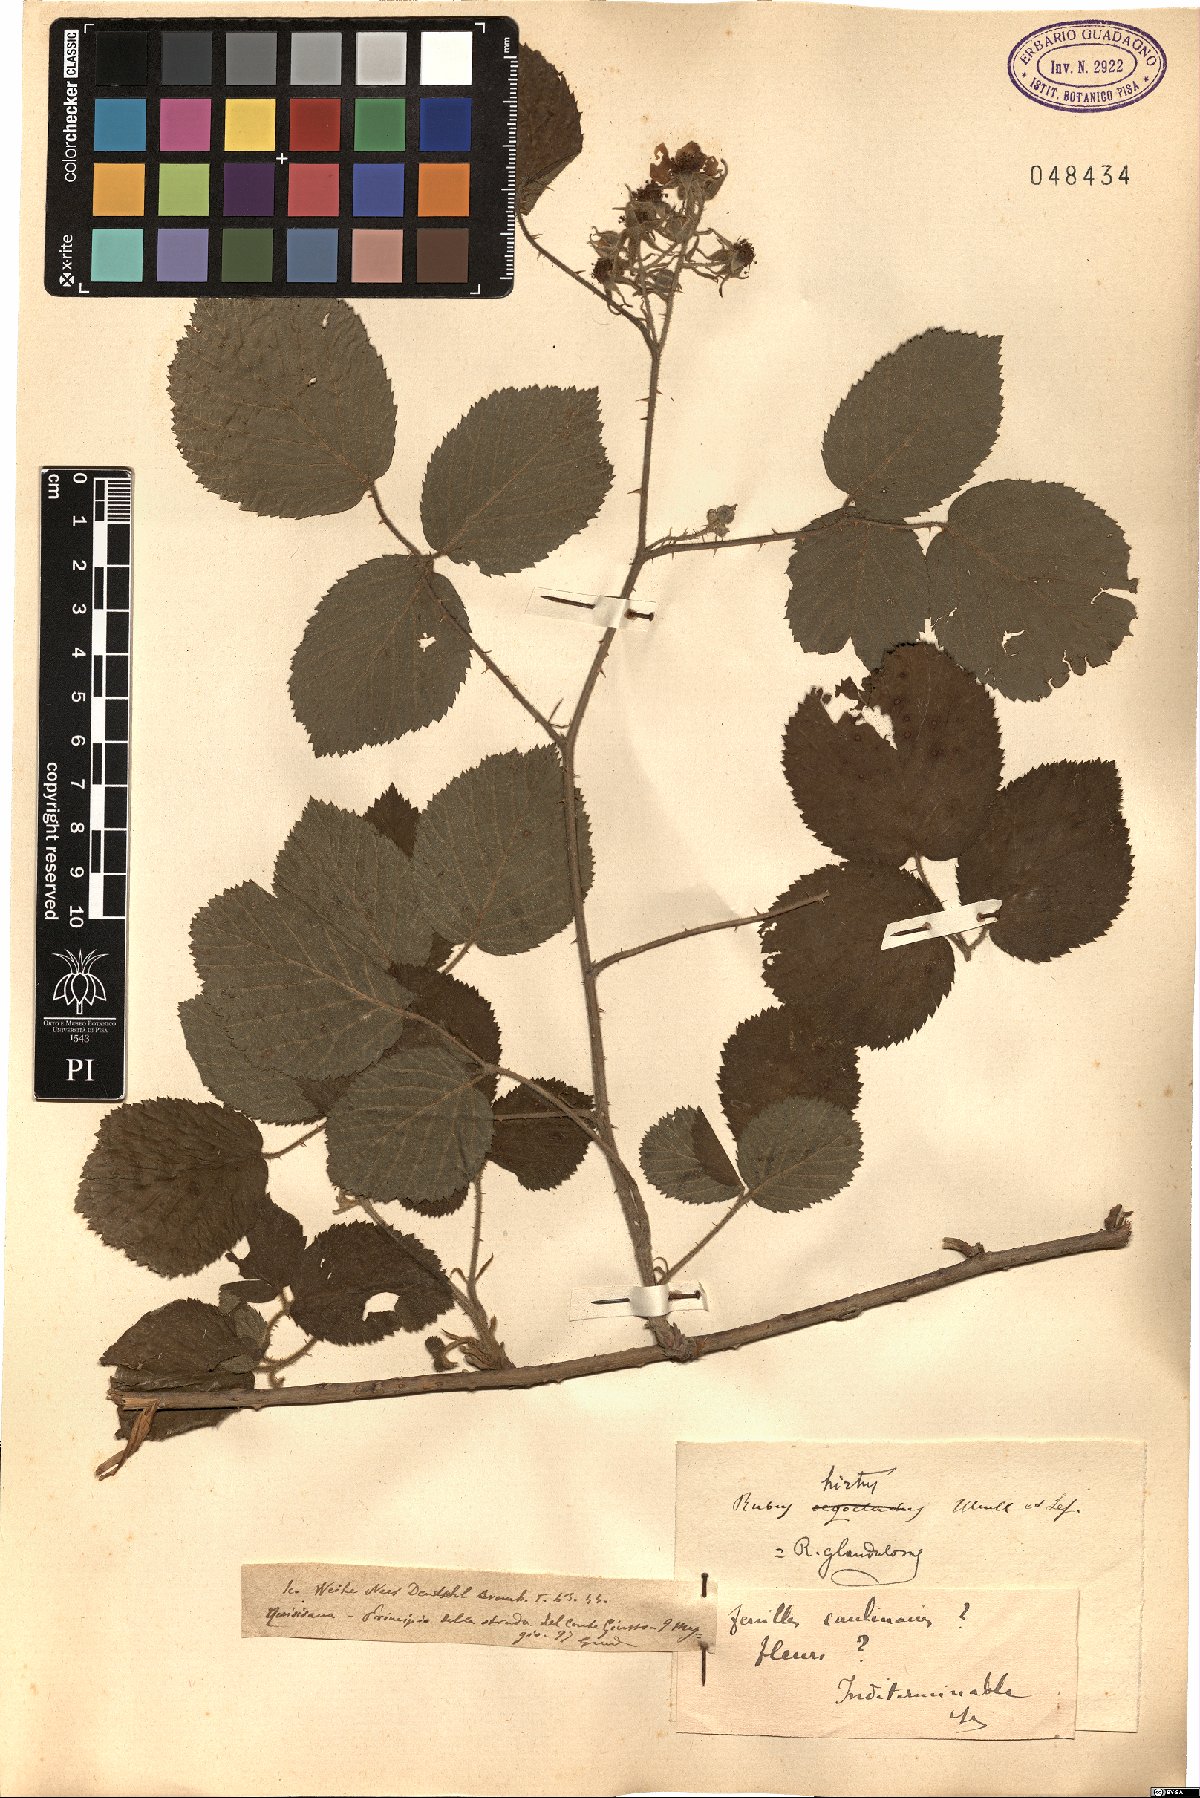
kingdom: Plantae
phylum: Tracheophyta
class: Magnoliopsida
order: Rosales
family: Rosaceae
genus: Rubus
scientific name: Rubus hirtus
